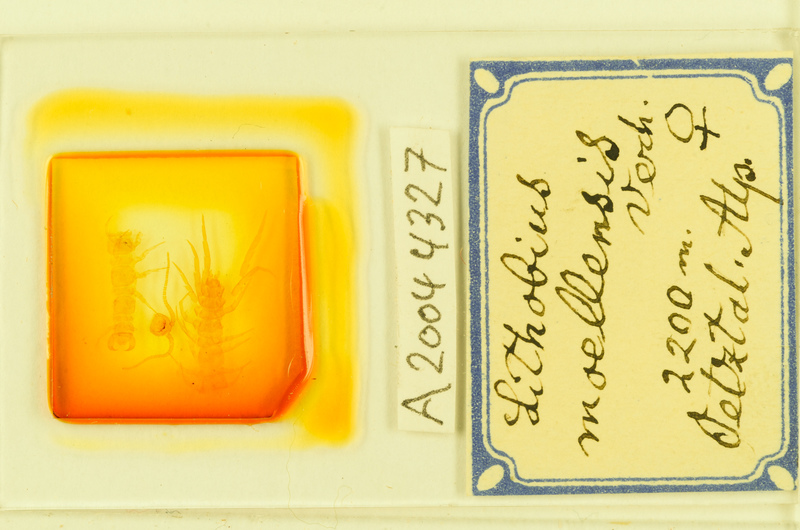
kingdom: Animalia
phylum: Arthropoda
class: Chilopoda
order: Lithobiomorpha
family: Lithobiidae
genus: Lithobius
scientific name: Lithobius moellensis
